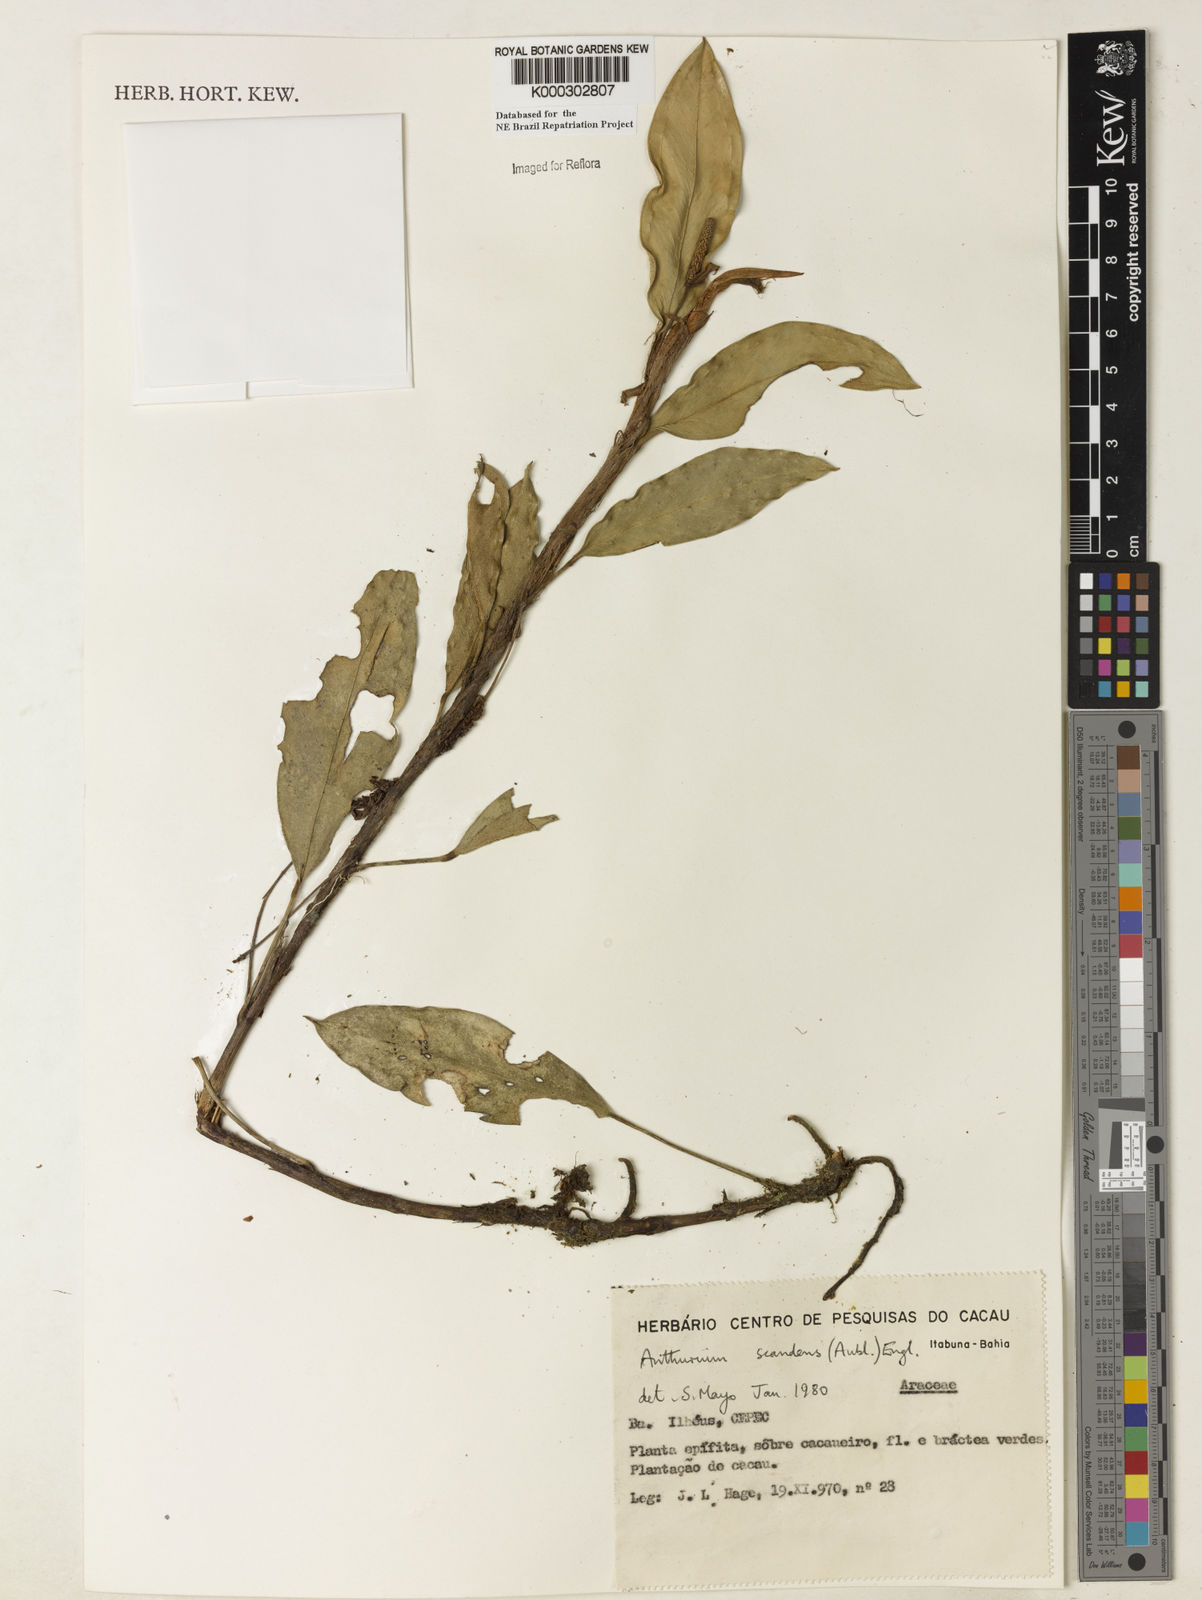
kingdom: Plantae
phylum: Tracheophyta
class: Liliopsida
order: Alismatales
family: Araceae
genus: Anthurium
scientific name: Anthurium scandens
